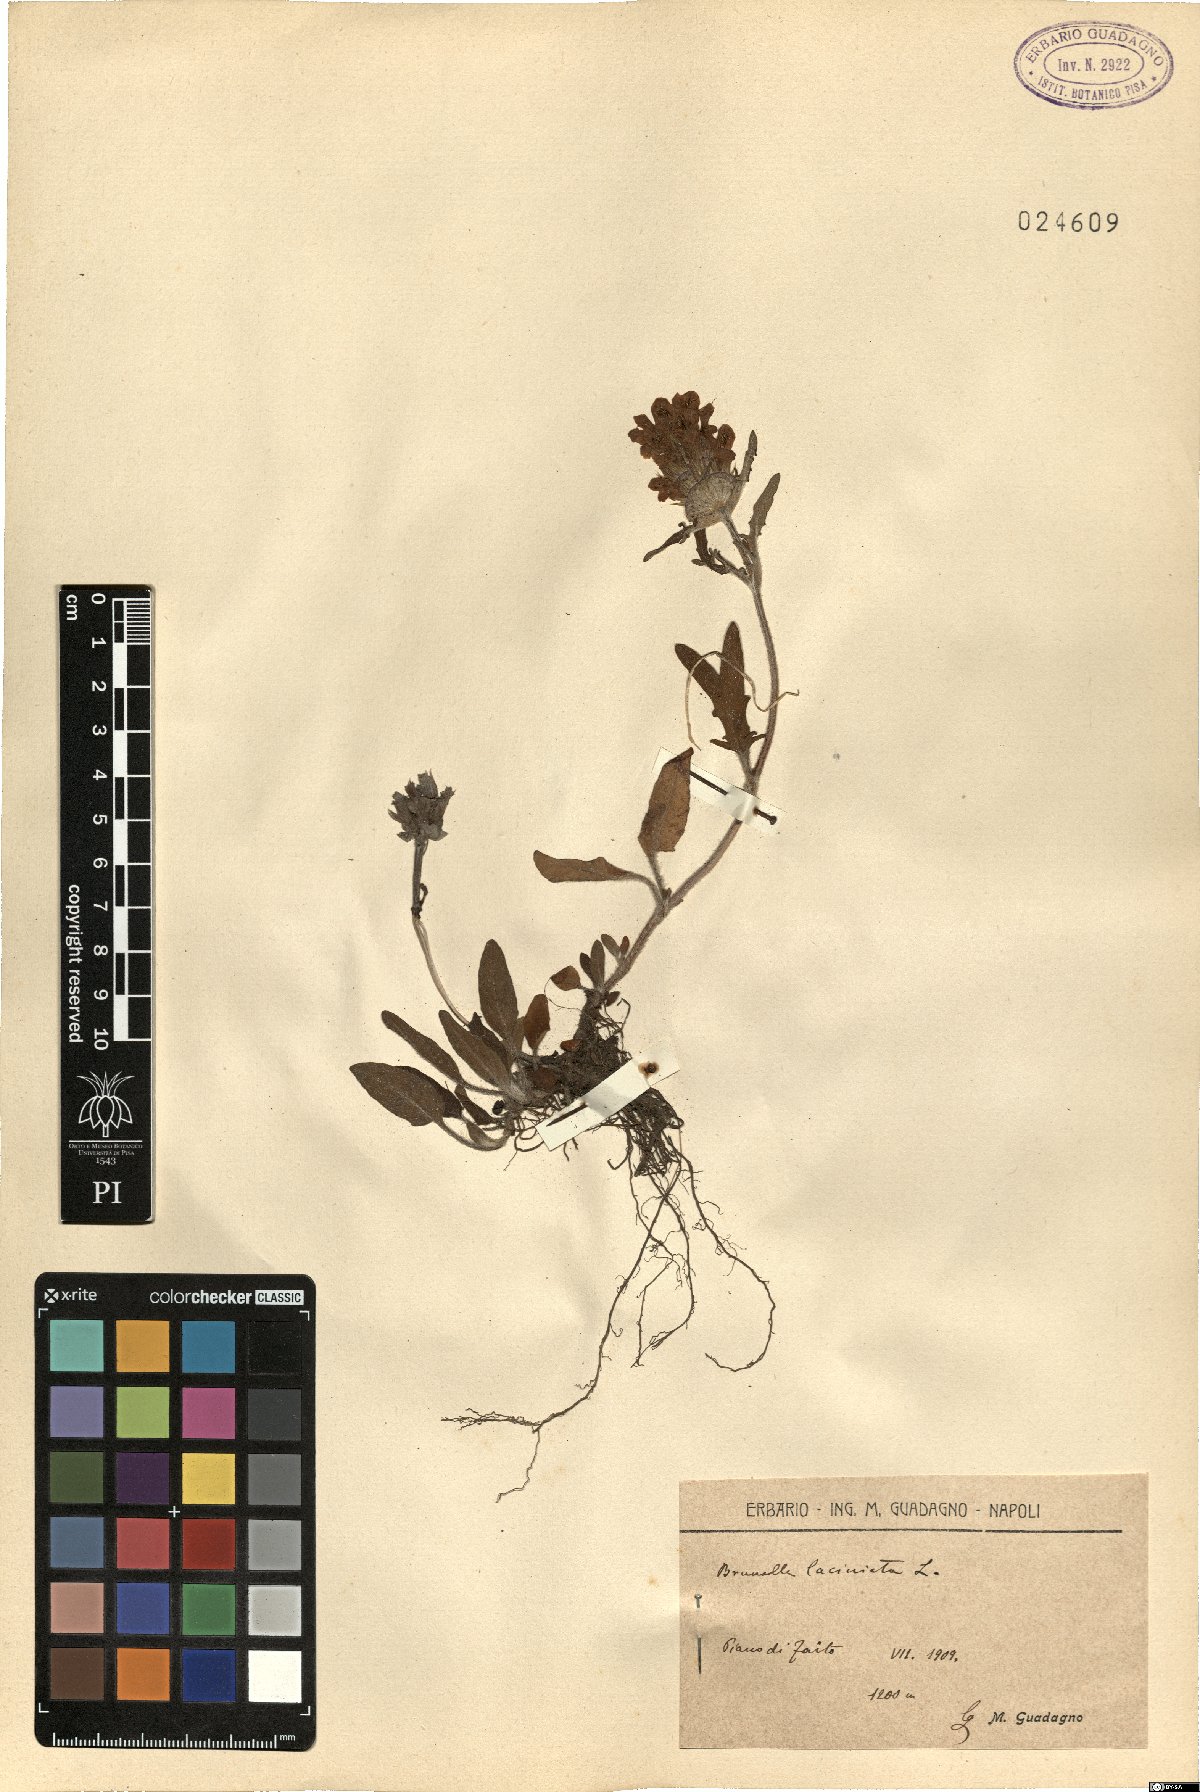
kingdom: Plantae
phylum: Tracheophyta
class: Magnoliopsida
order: Lamiales
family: Lamiaceae
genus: Prunella
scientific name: Prunella laciniata
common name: Cut-leaved selfheal
